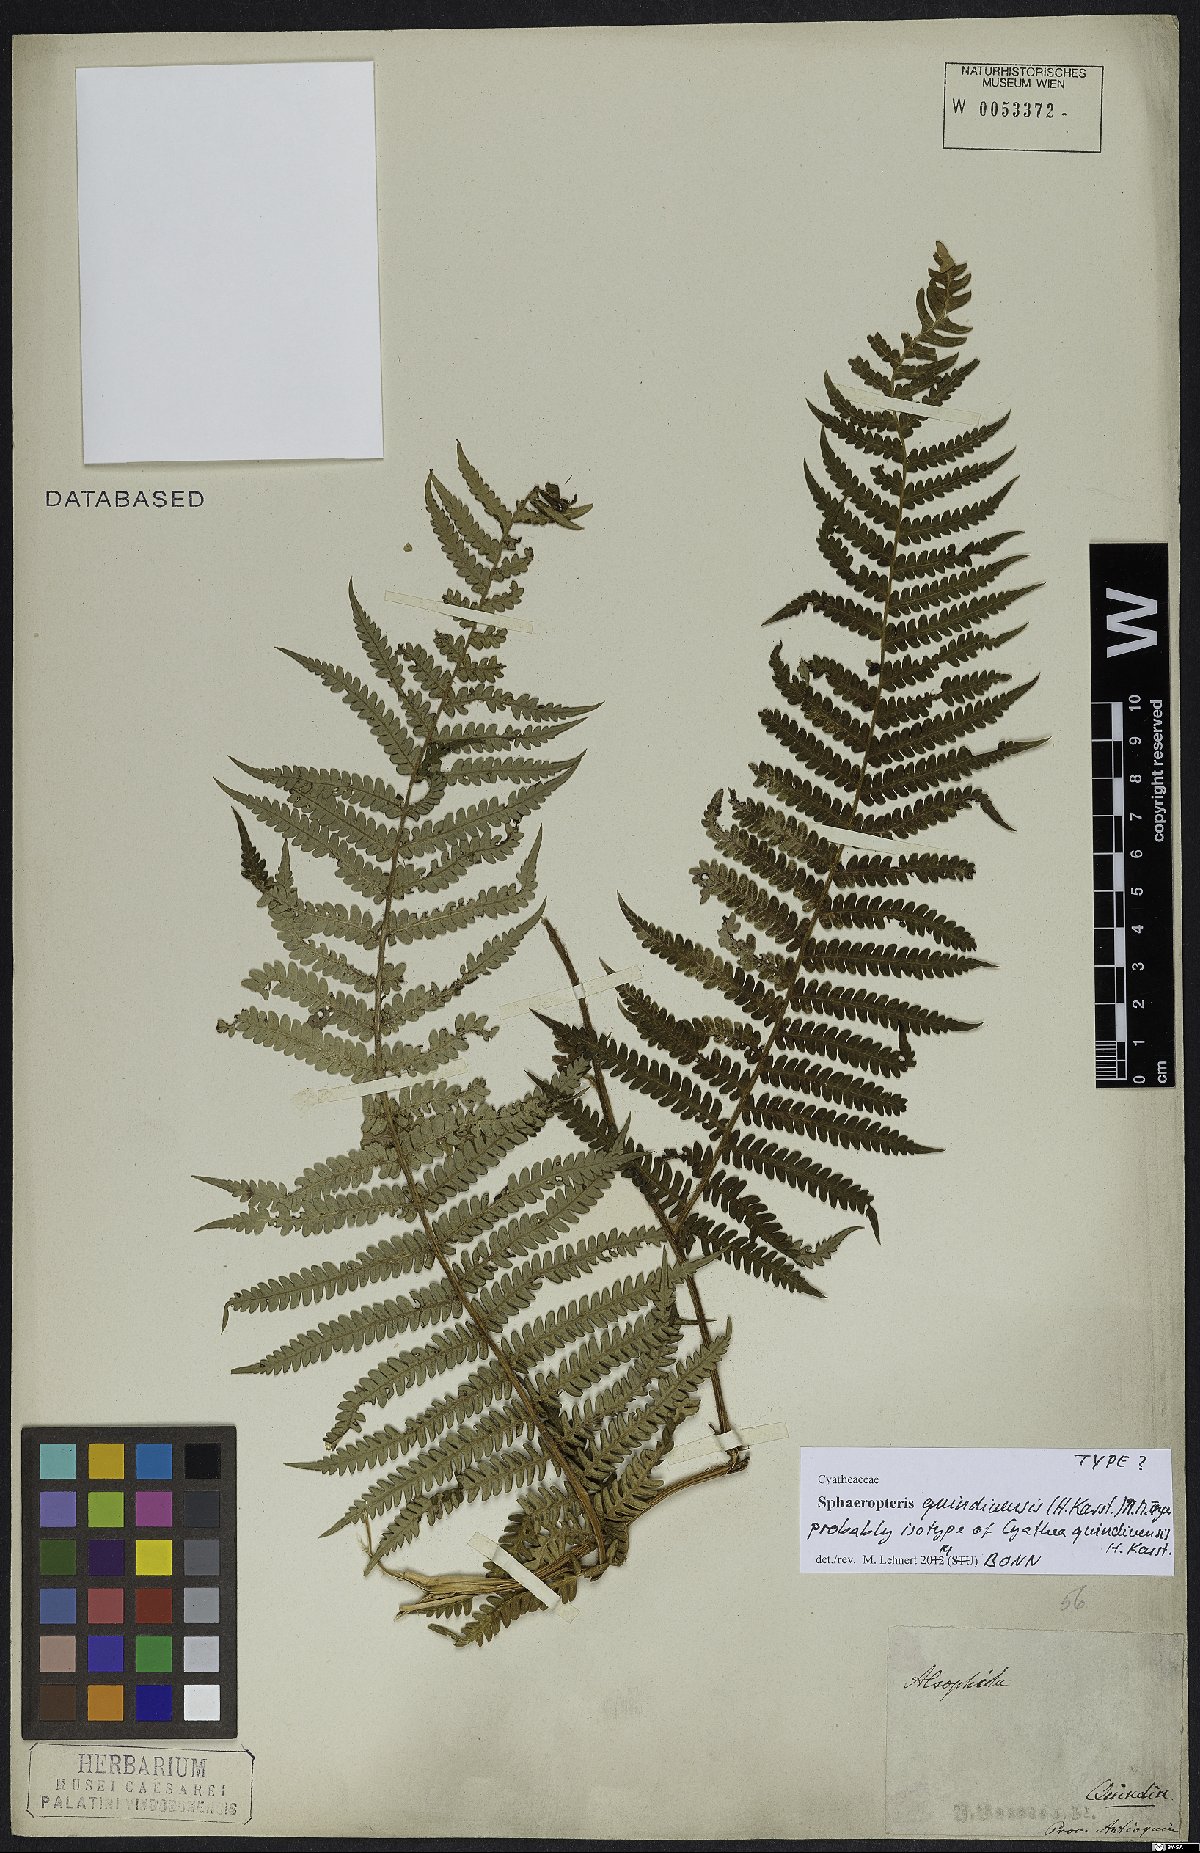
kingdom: Plantae
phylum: Tracheophyta
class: Polypodiopsida
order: Cyatheales
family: Cyatheaceae
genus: Sphaeropteris
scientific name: Sphaeropteris quindiuensis
